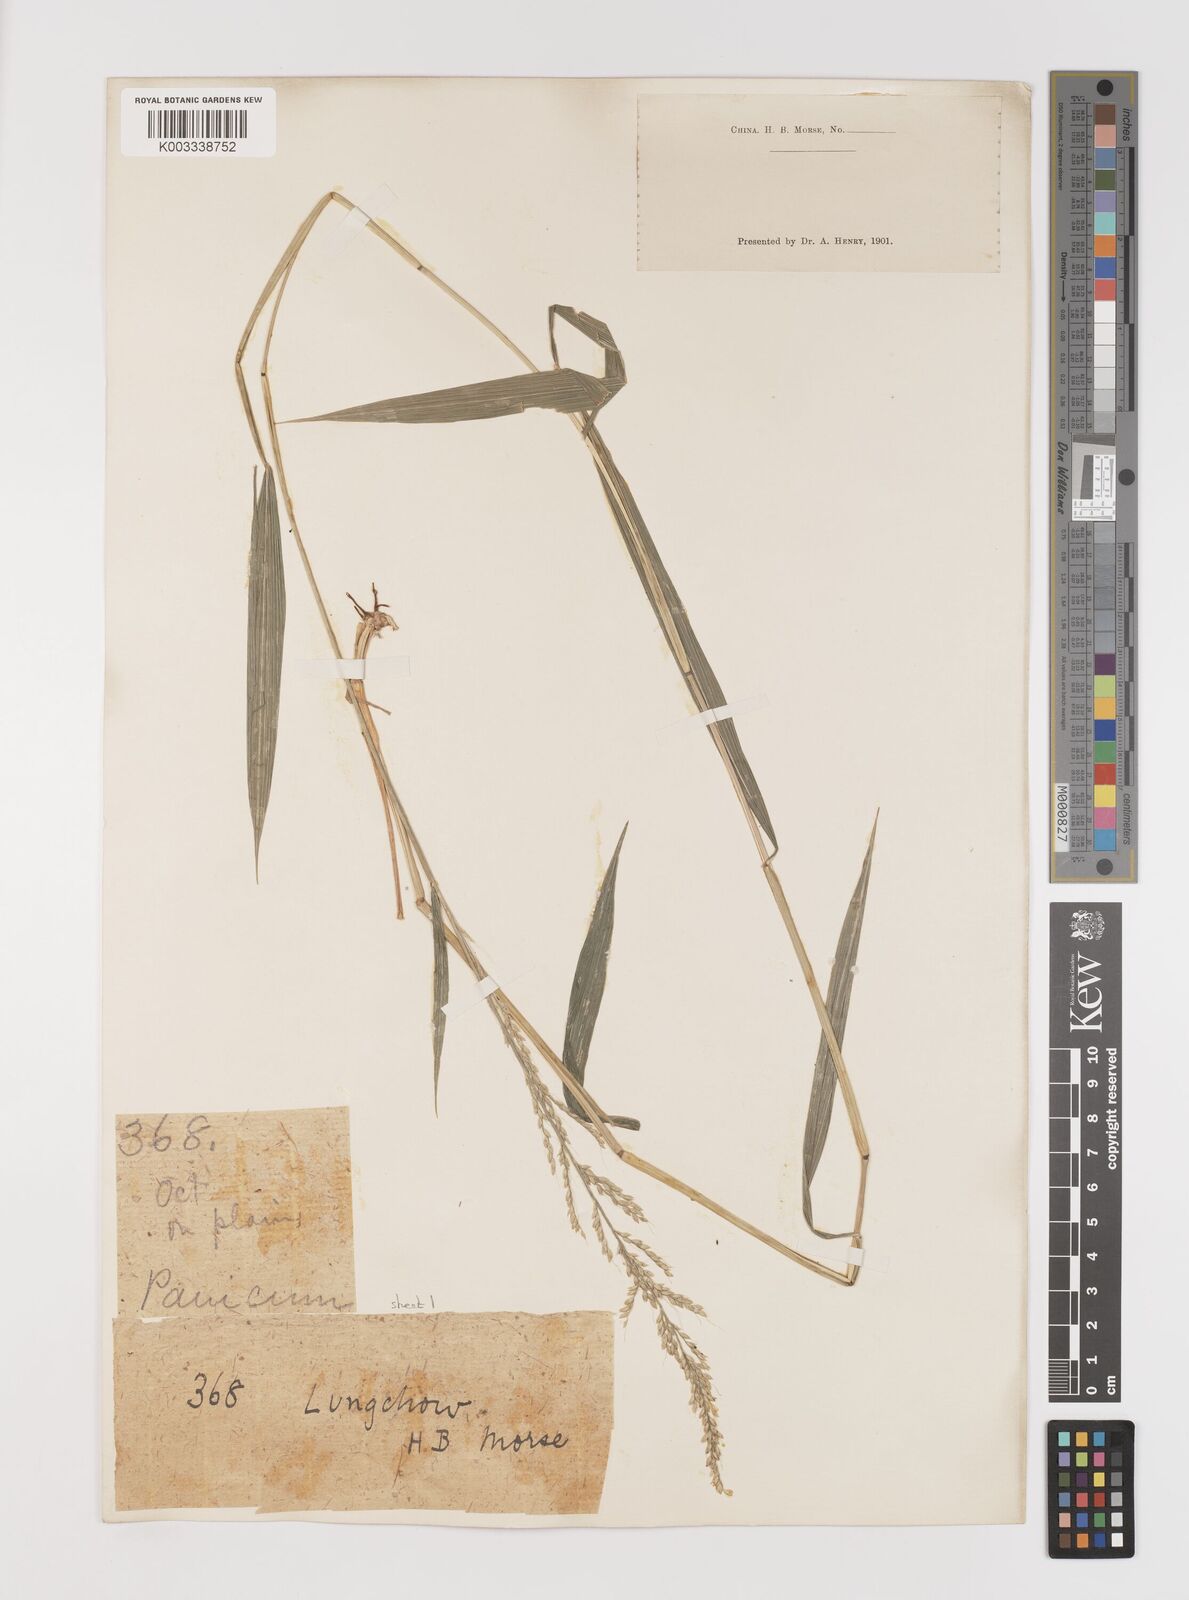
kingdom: Plantae
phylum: Tracheophyta
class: Liliopsida
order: Poales
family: Poaceae
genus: Setaria
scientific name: Setaria plicata
